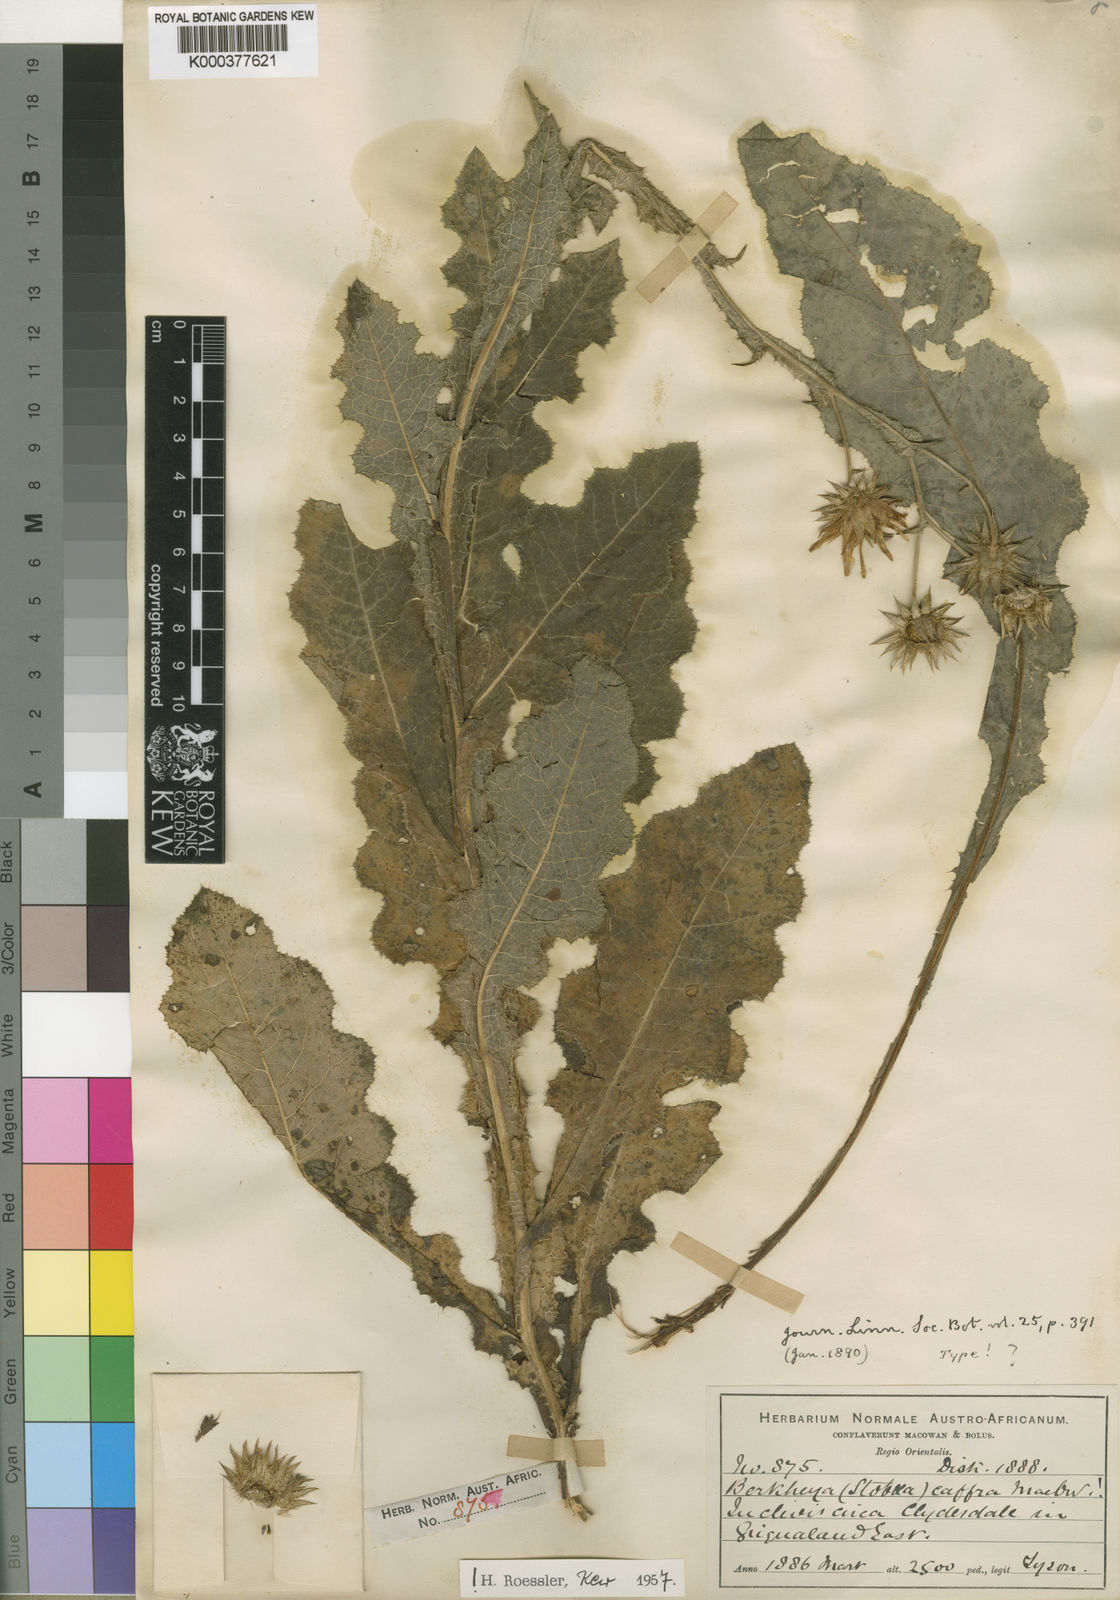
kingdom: Plantae
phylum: Tracheophyta
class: Magnoliopsida
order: Asterales
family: Asteraceae
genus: Berkheya
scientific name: Berkheya caffra
